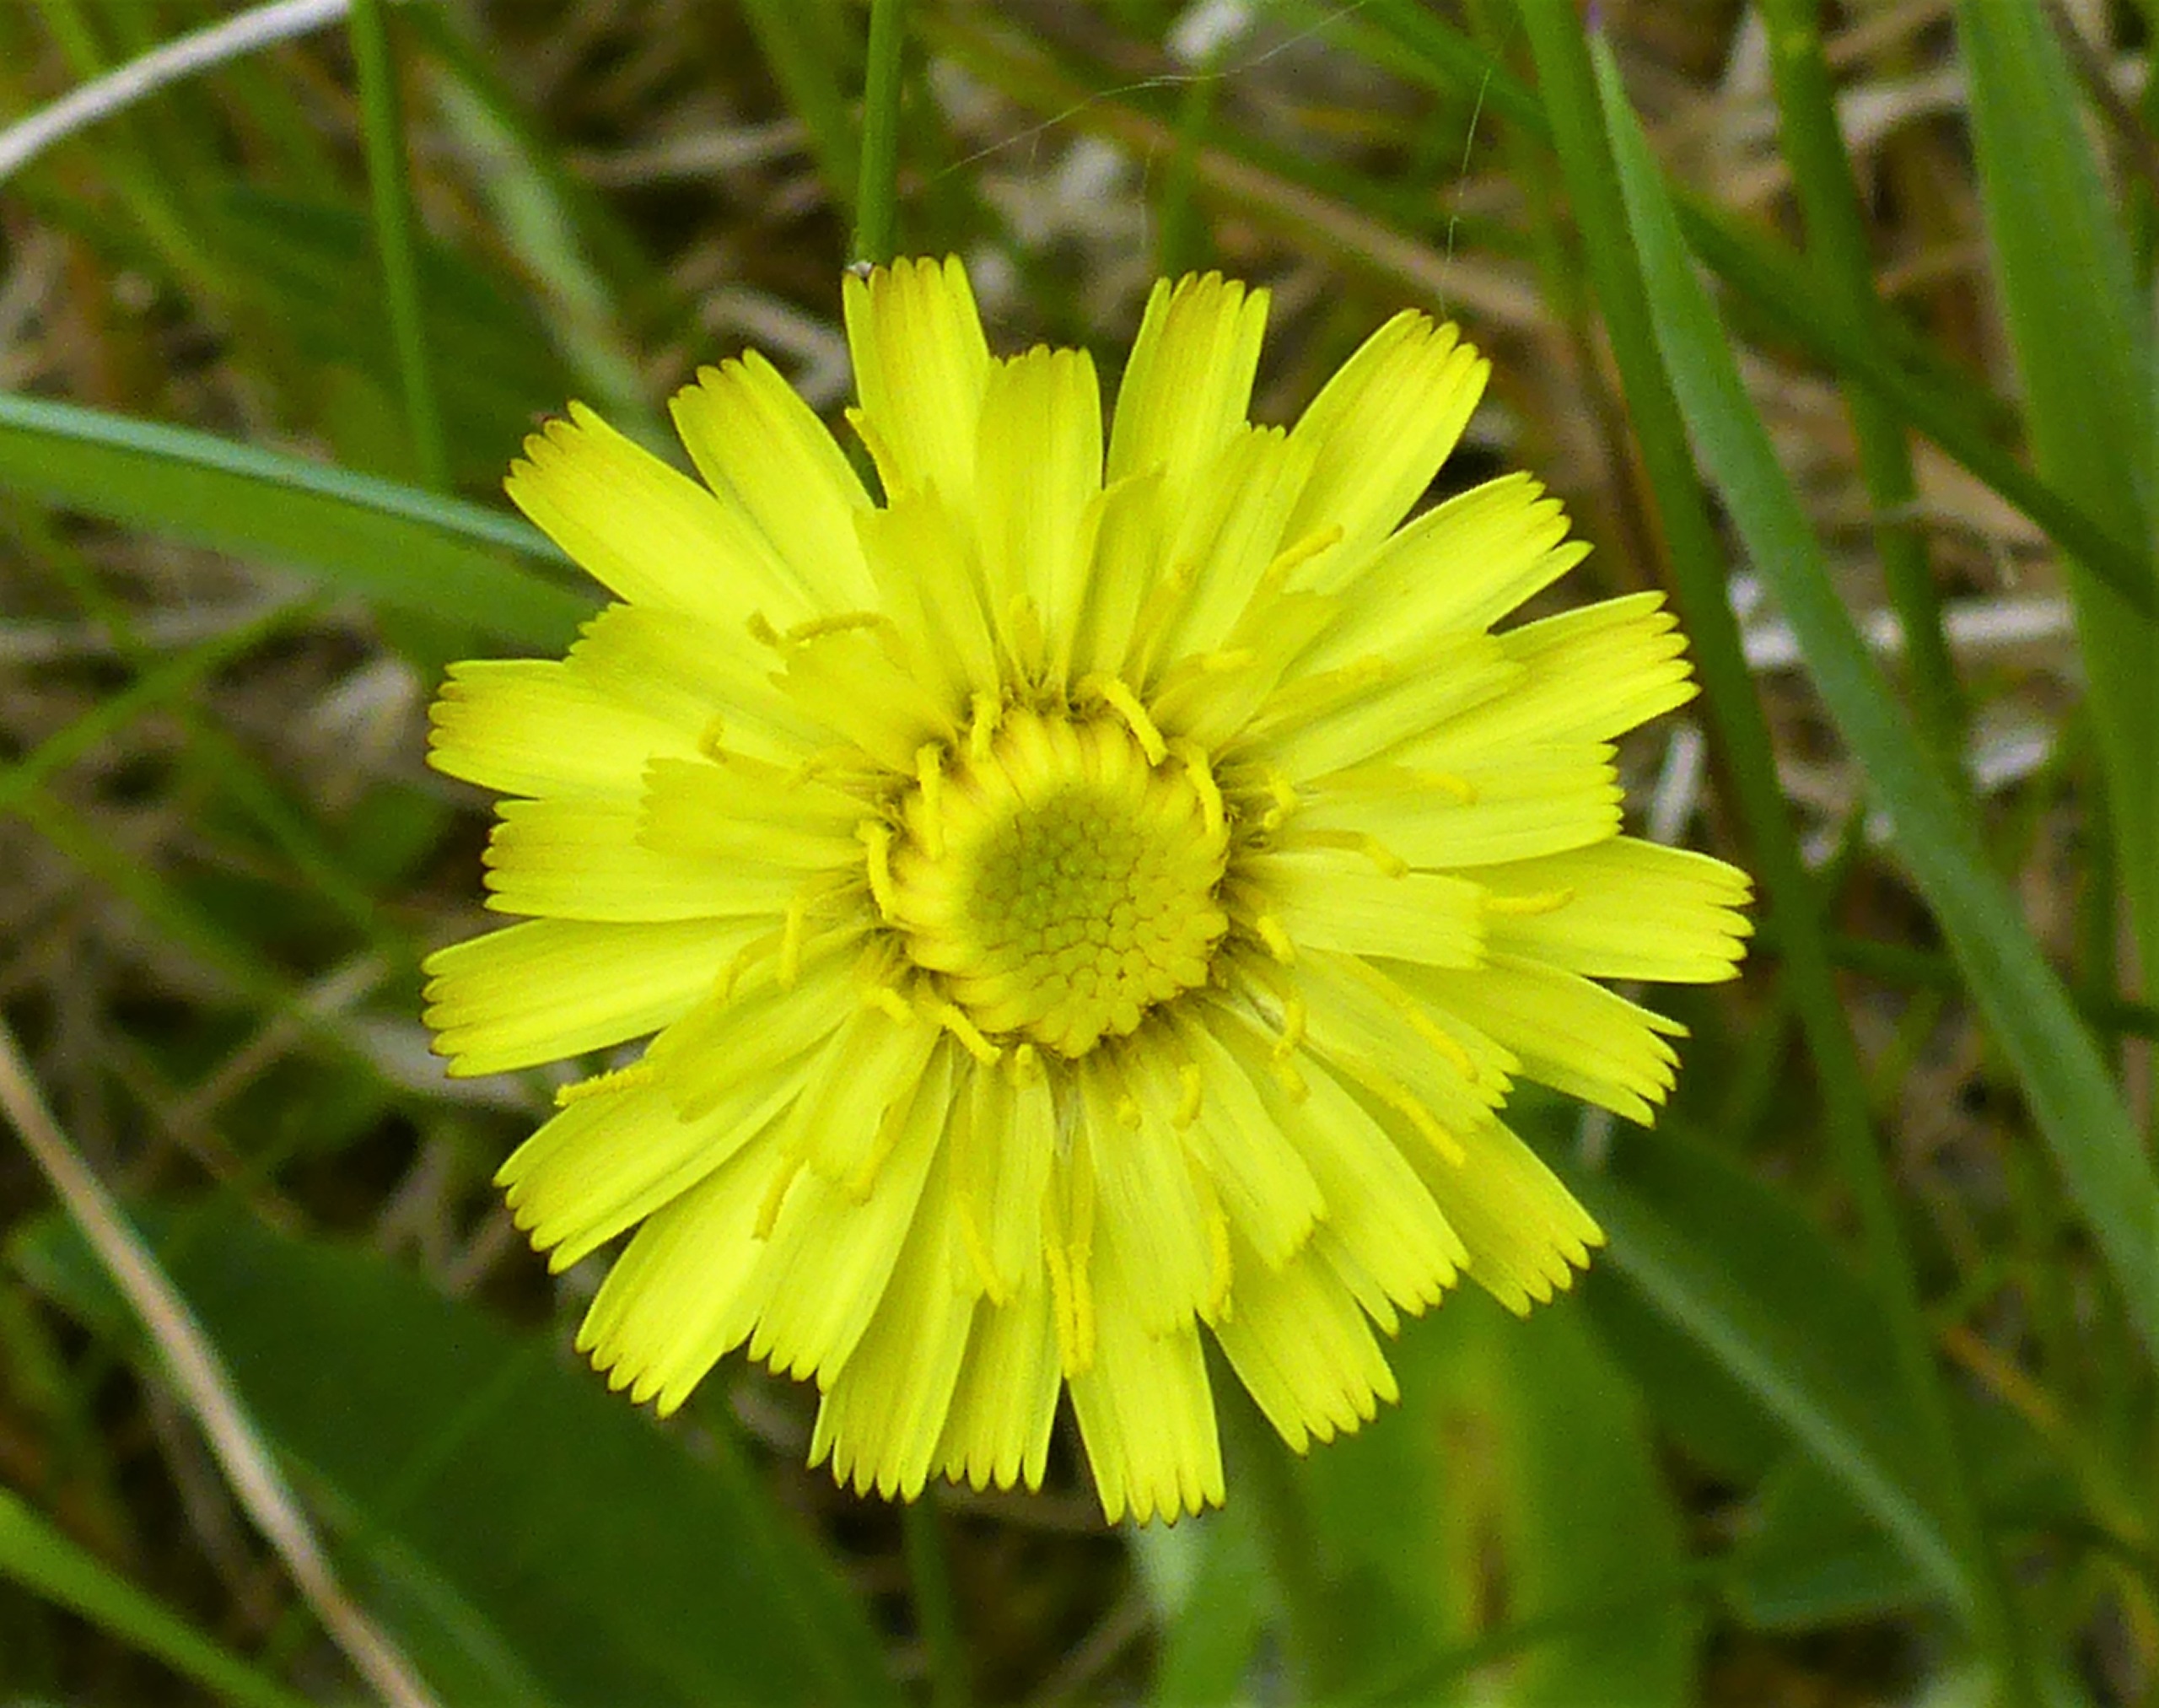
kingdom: Plantae
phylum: Tracheophyta
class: Magnoliopsida
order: Asterales
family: Asteraceae
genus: Pilosella
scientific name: Pilosella officinarum
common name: Håret høgeurt
